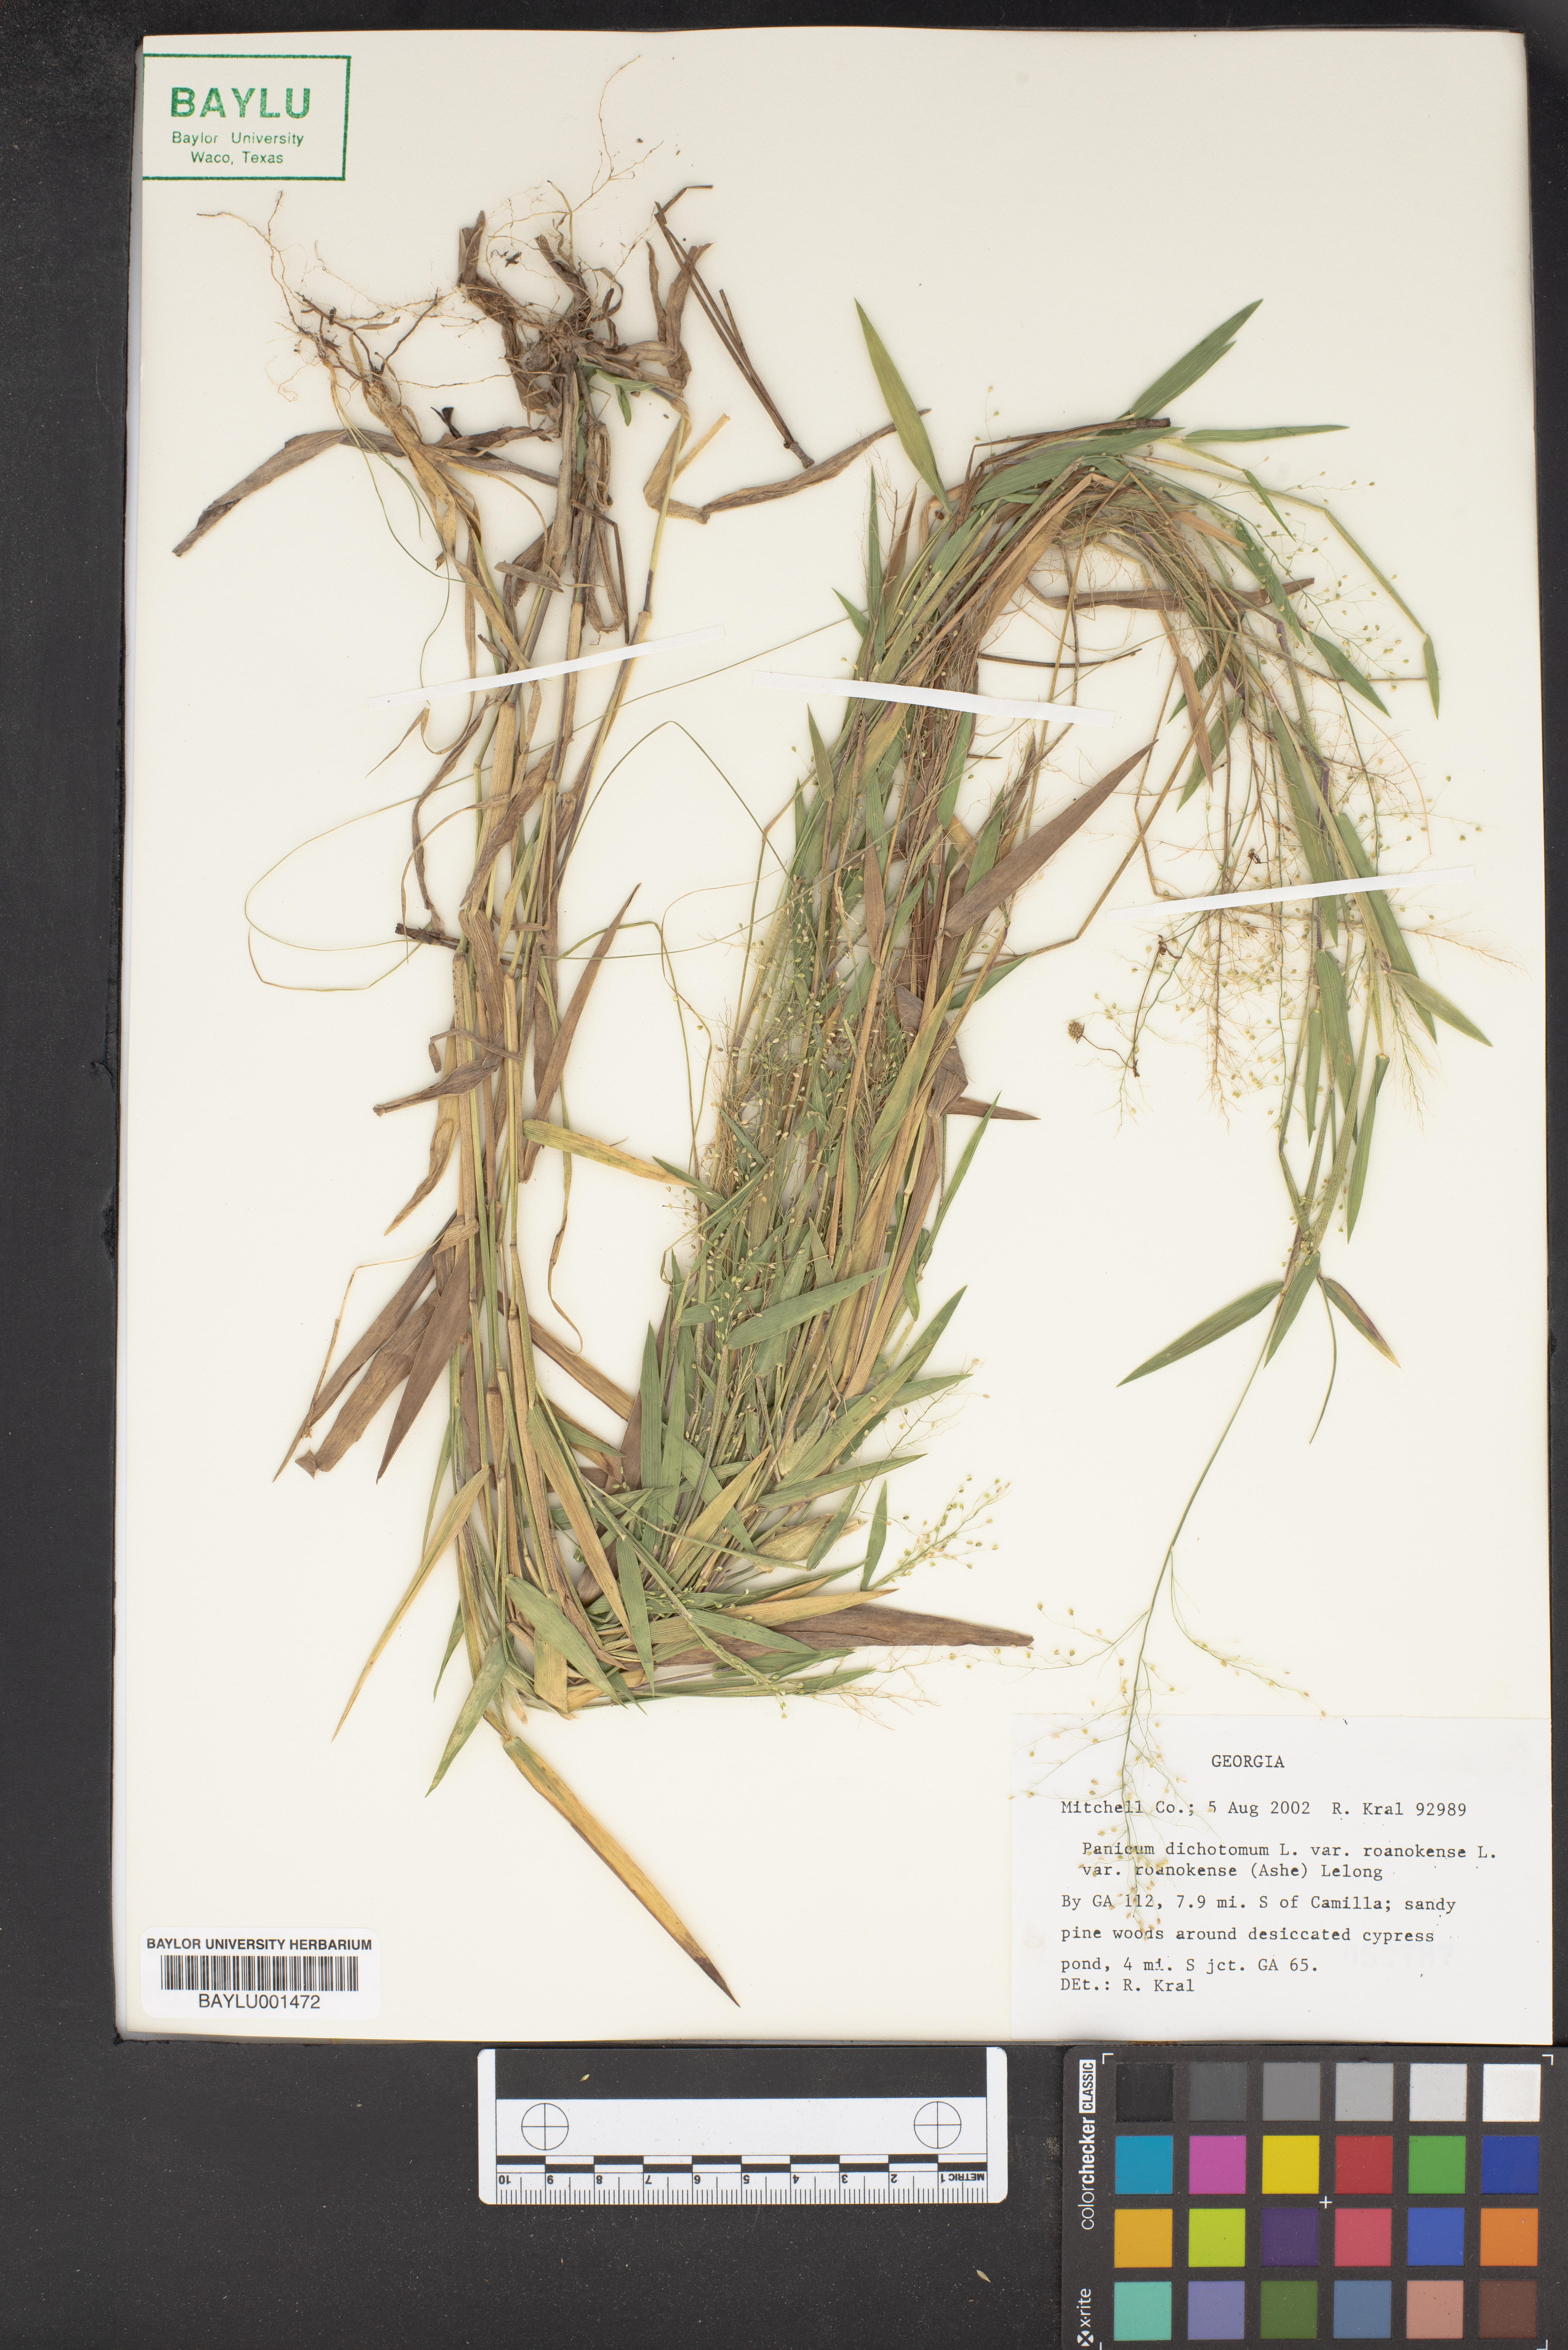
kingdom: Plantae
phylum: Tracheophyta
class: Liliopsida
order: Poales
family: Poaceae
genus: Dichanthelium
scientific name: Dichanthelium dichotomum
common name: Cypress panicgrass
